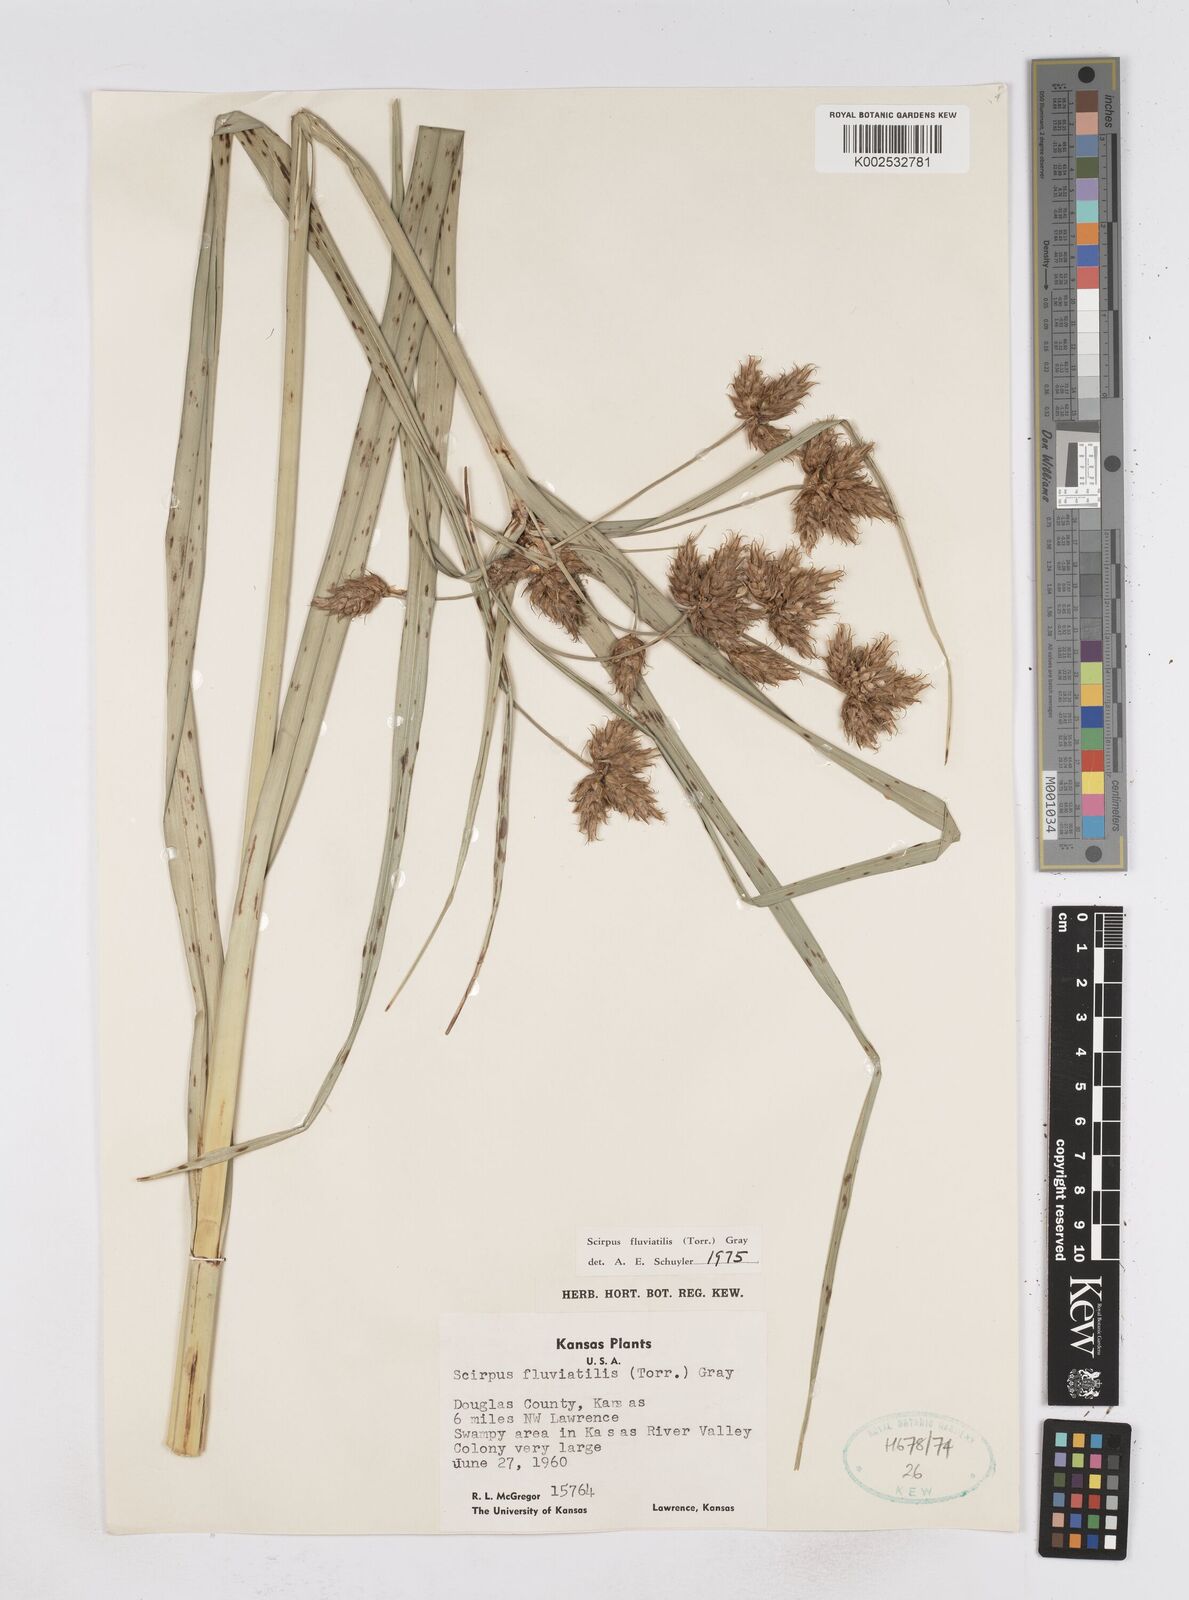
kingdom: Plantae
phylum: Tracheophyta
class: Liliopsida
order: Poales
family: Cyperaceae
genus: Bolboschoenus
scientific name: Bolboschoenus
